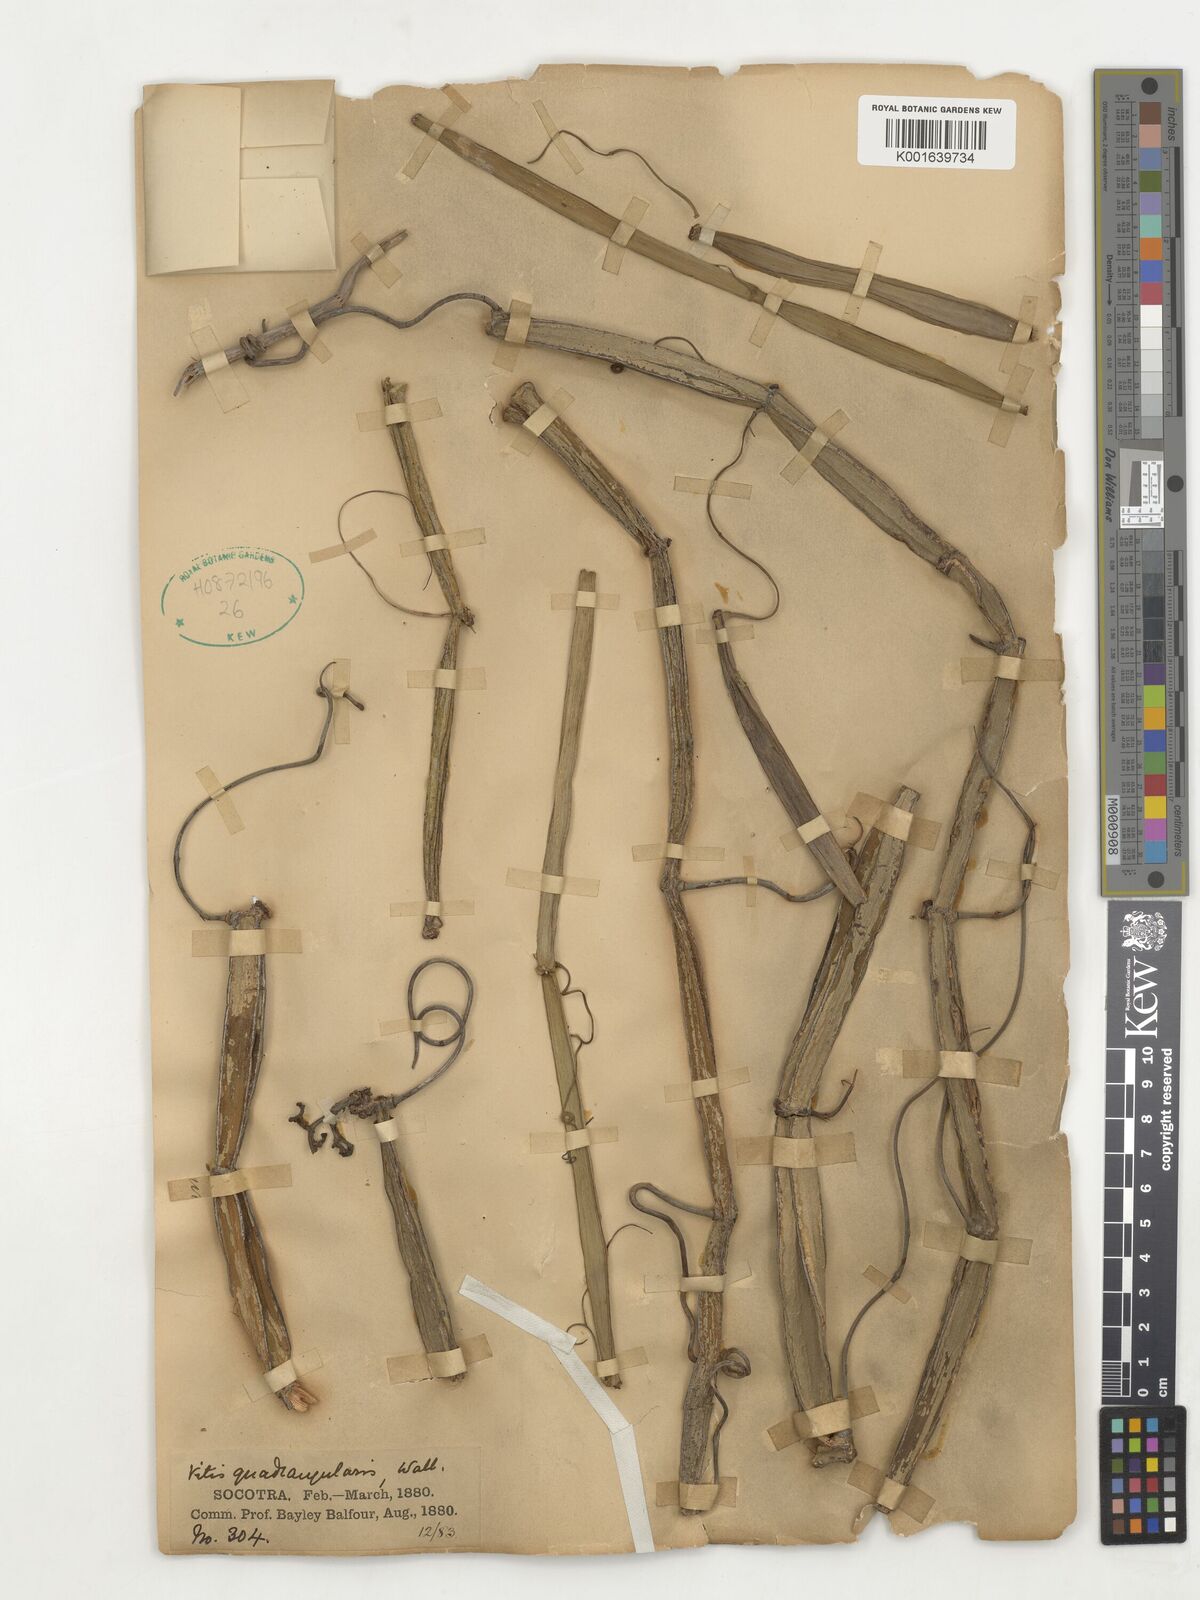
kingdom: Plantae
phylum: Tracheophyta
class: Magnoliopsida
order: Vitales
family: Vitaceae
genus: Cissus
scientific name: Cissus quadrangularis
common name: Veldt-grape
